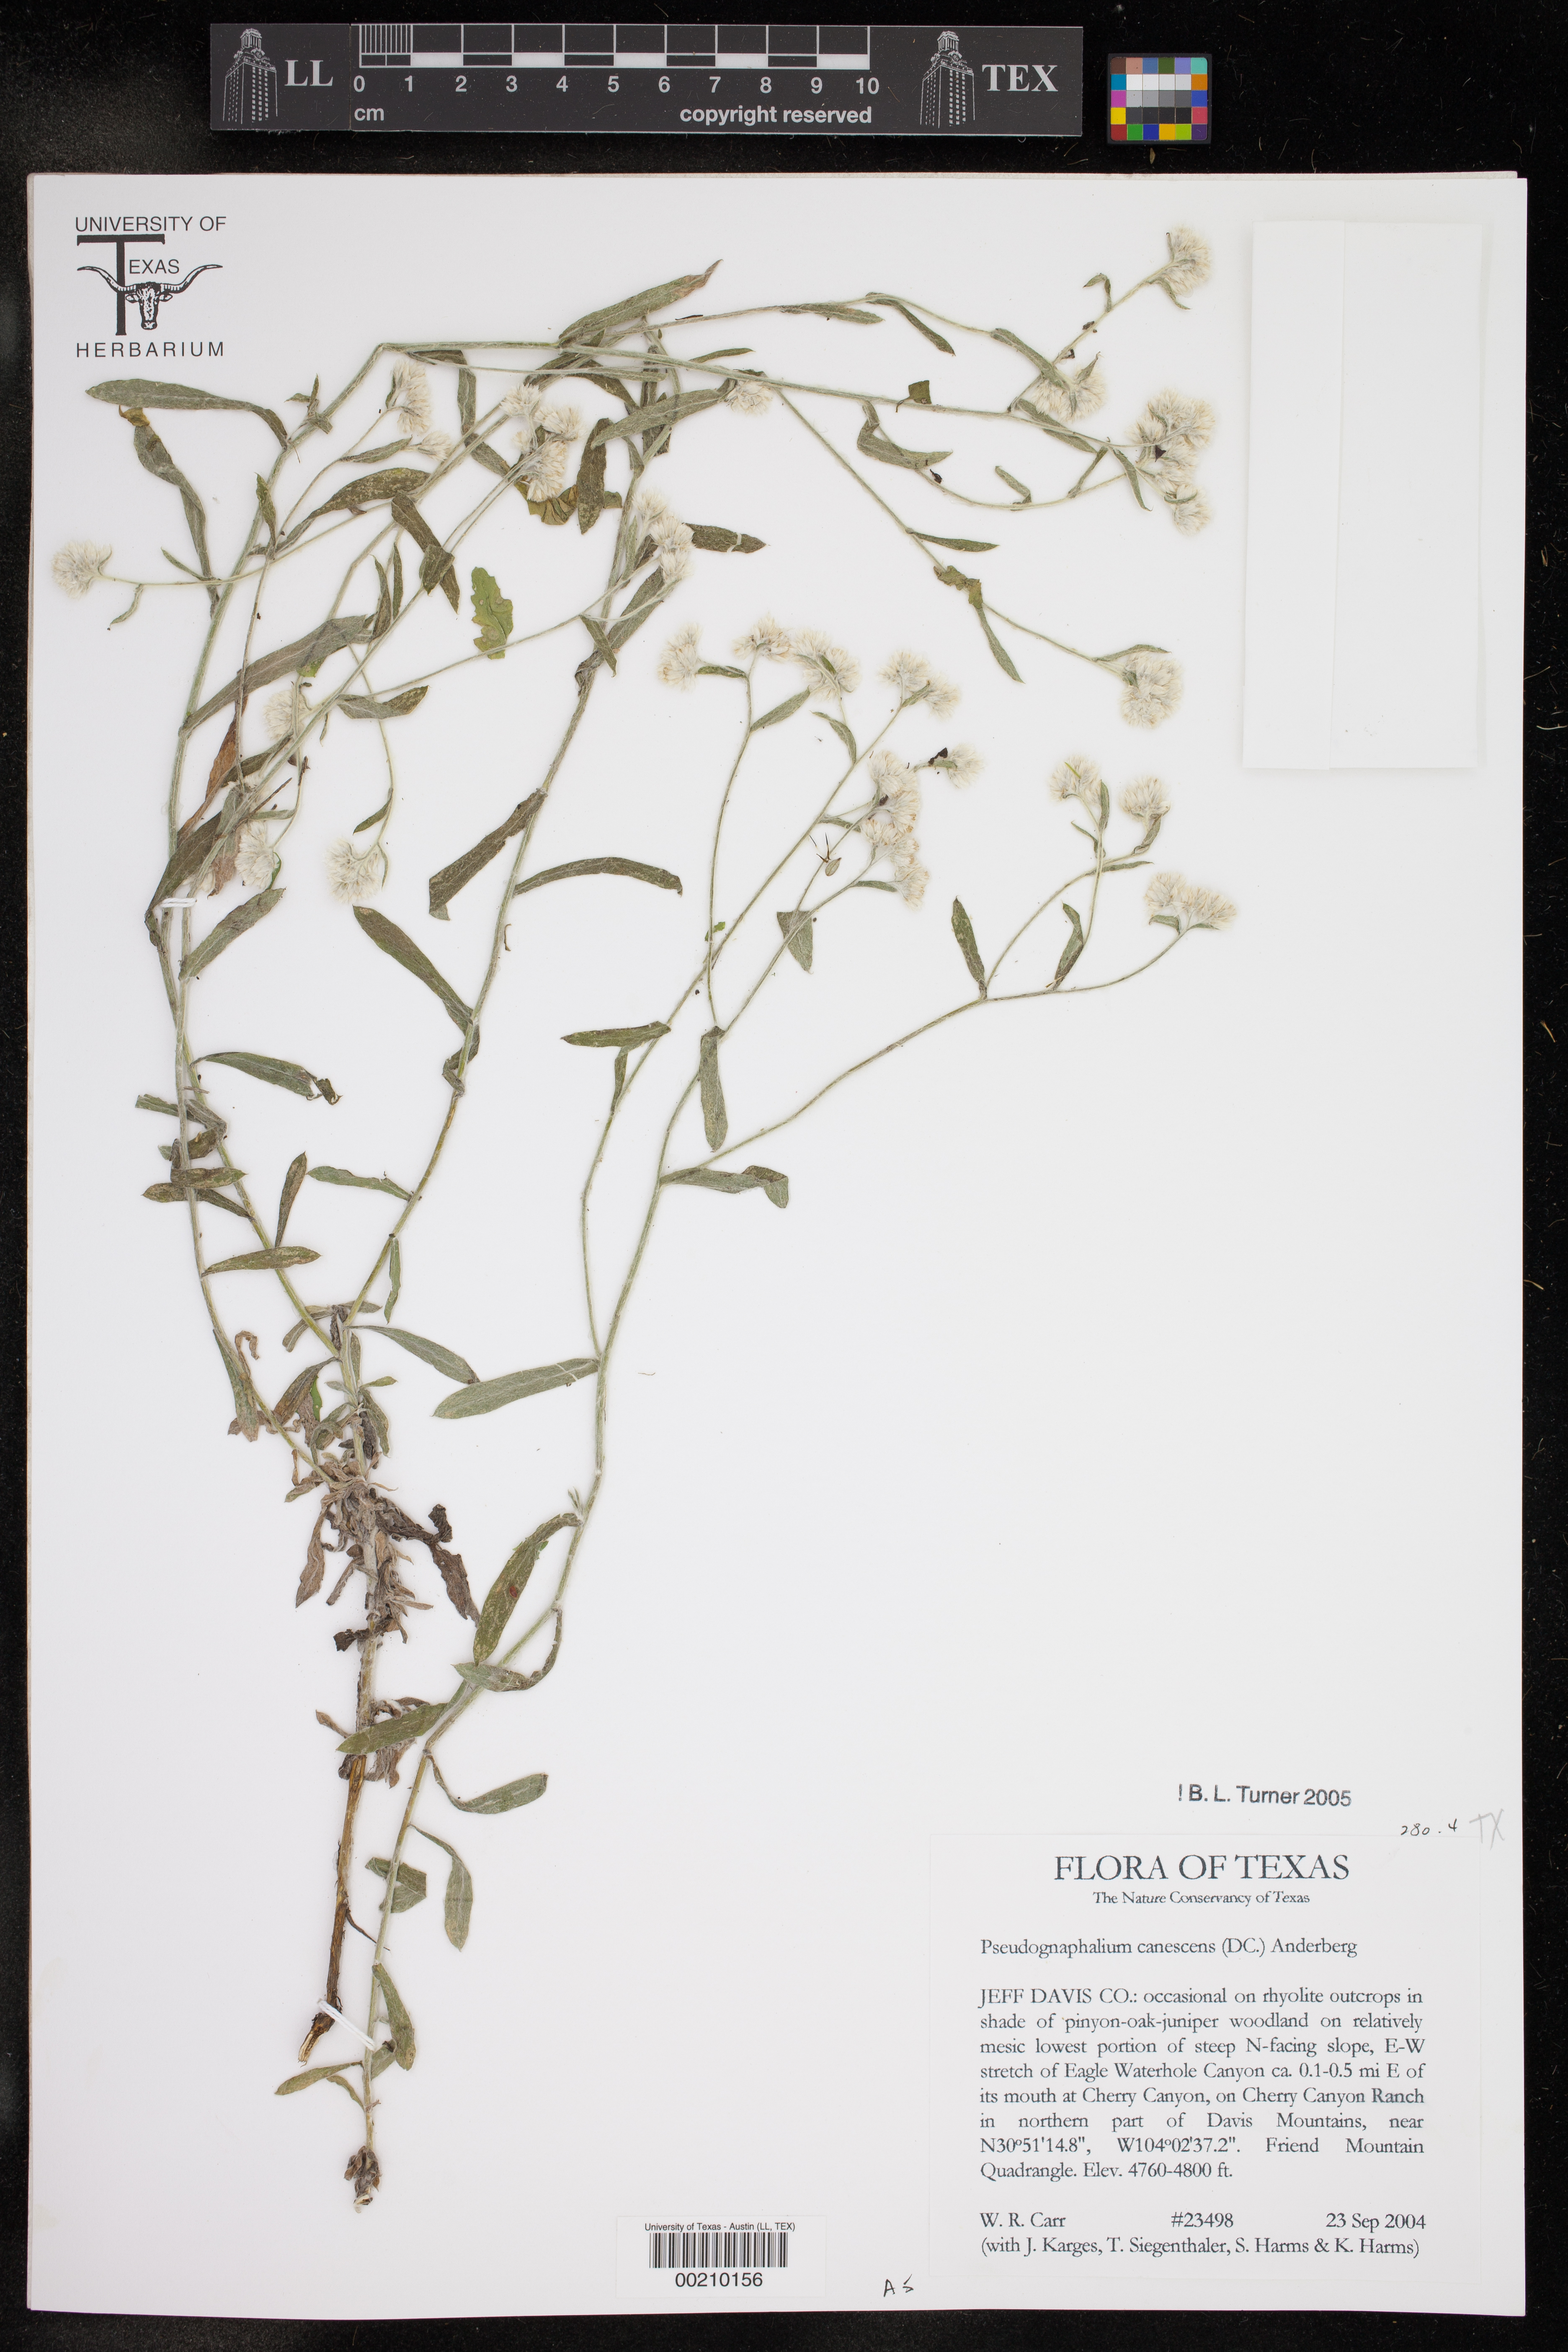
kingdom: Plantae
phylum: Tracheophyta
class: Magnoliopsida
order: Asterales
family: Asteraceae
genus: Pseudognaphalium
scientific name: Pseudognaphalium canescens
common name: Wright's rabbit-tobacco
